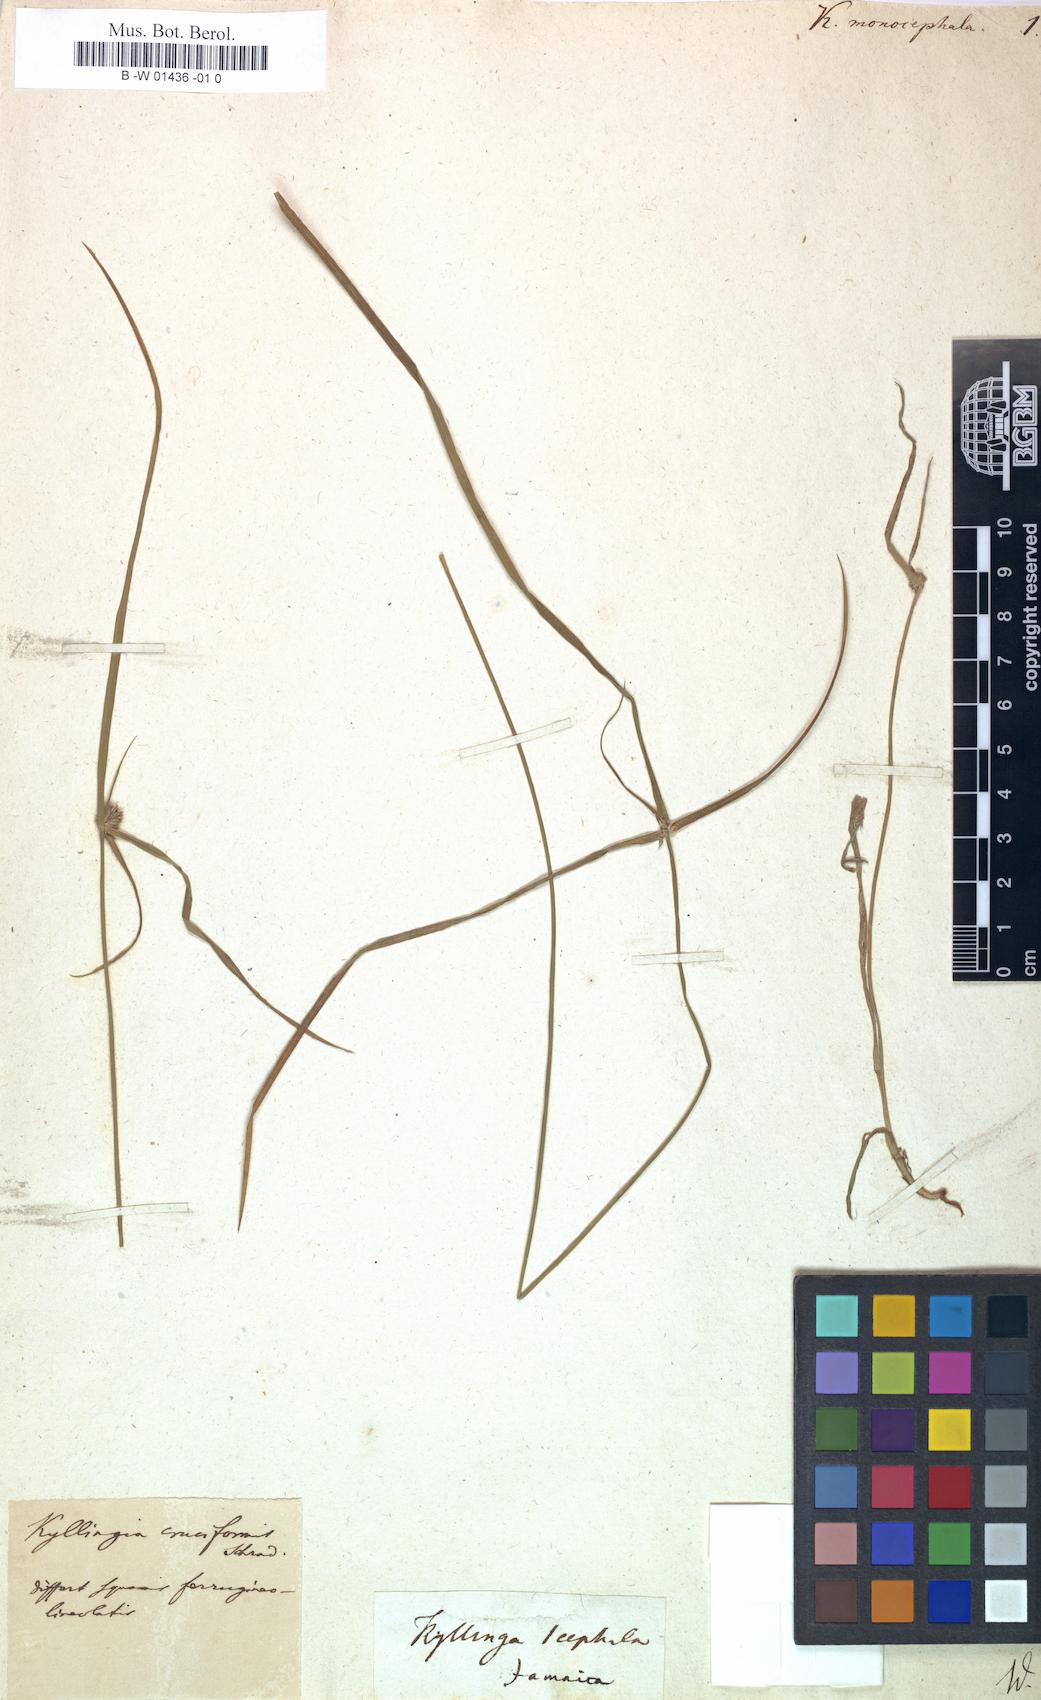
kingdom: Plantae
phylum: Tracheophyta
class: Liliopsida
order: Poales
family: Cyperaceae
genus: Cyperus
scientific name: Cyperus brevifolius
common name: Globe kyllinga
